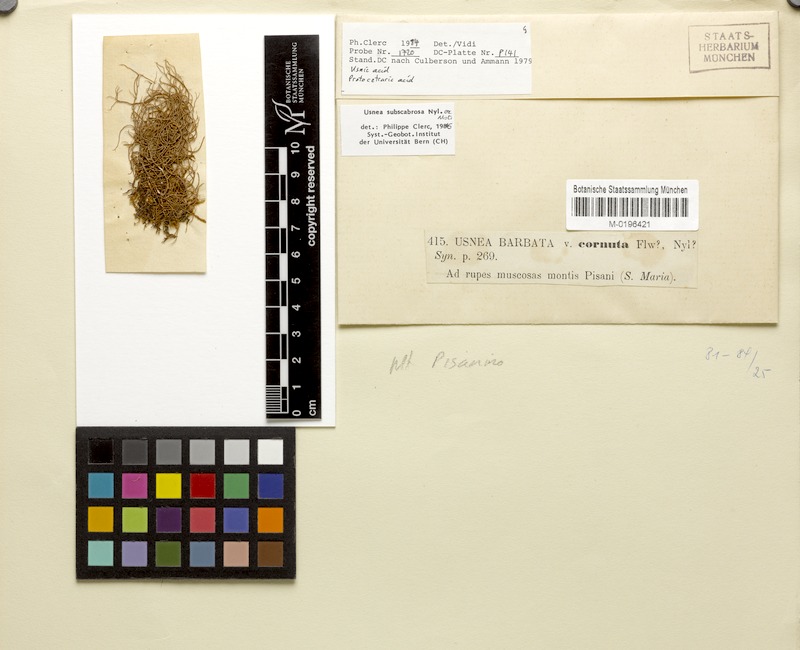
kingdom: Fungi
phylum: Ascomycota
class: Lecanoromycetes
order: Lecanorales
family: Parmeliaceae
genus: Usnea
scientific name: Usnea subscabrosa
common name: Beard lichen
